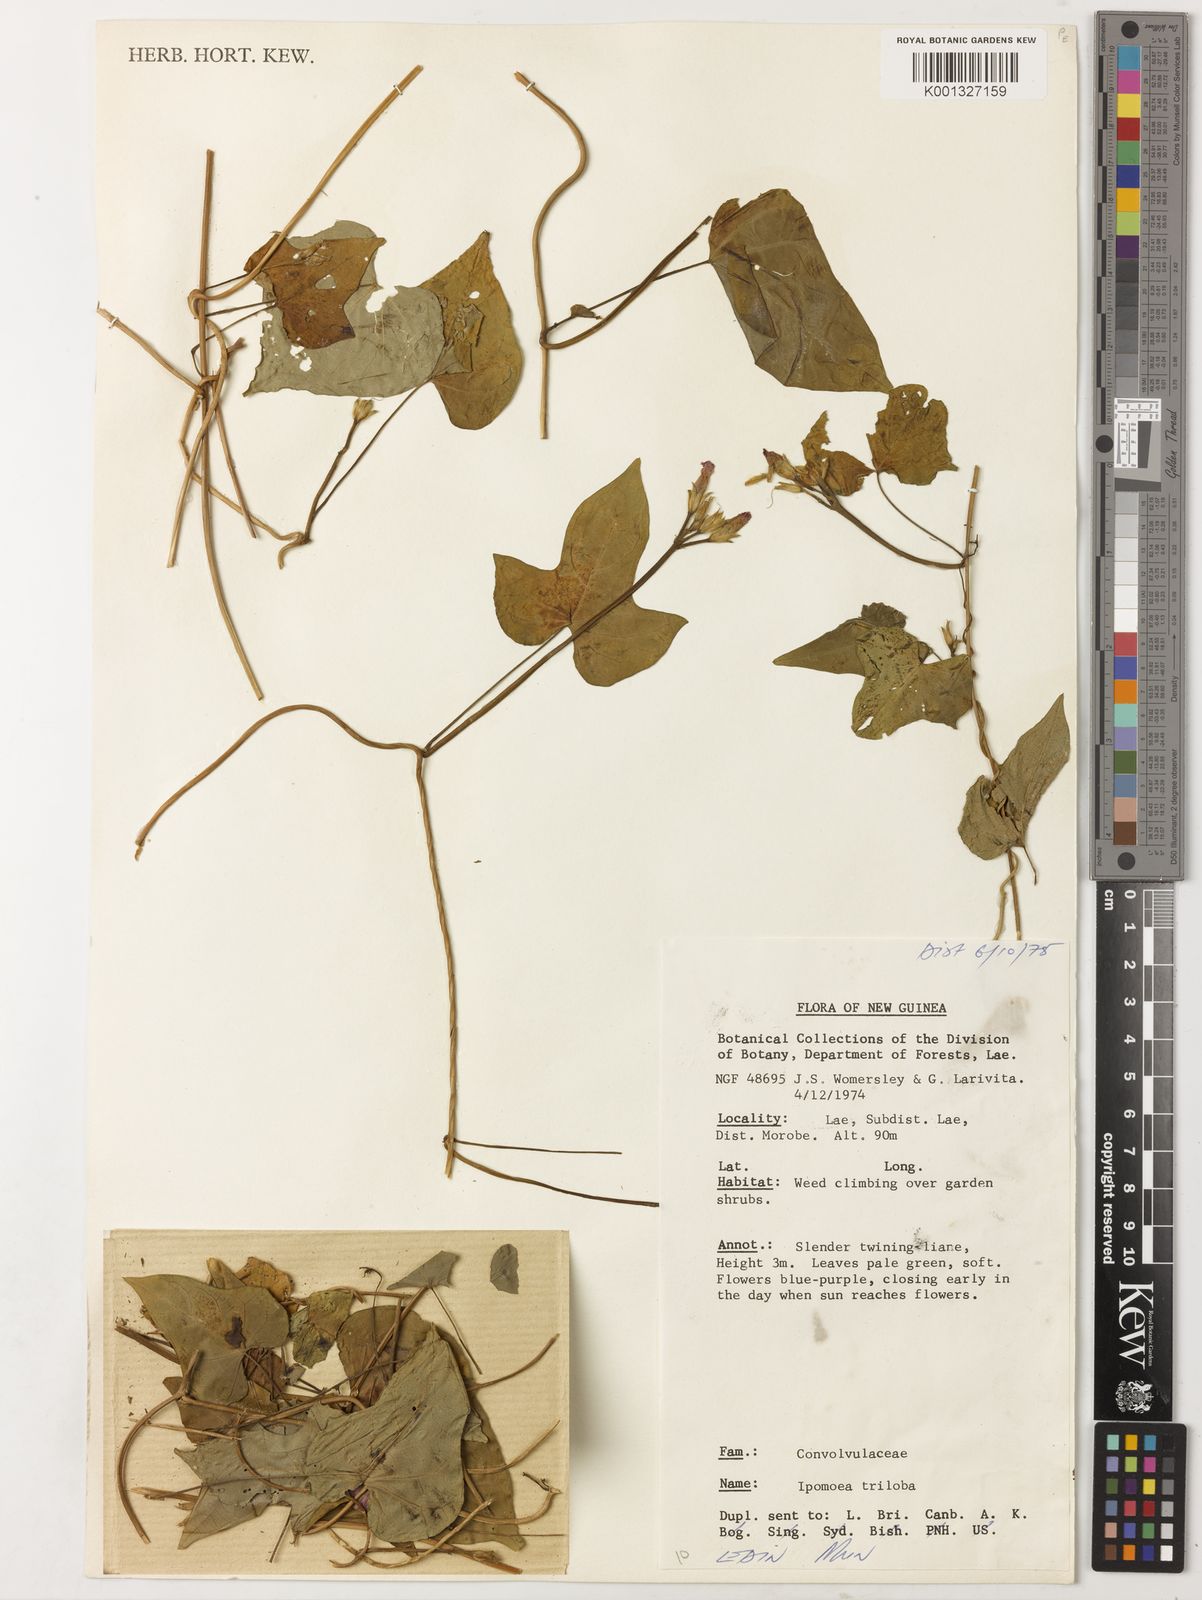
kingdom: Plantae
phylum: Tracheophyta
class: Magnoliopsida
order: Solanales
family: Convolvulaceae
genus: Ipomoea
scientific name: Ipomoea triloba
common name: Little-bell
